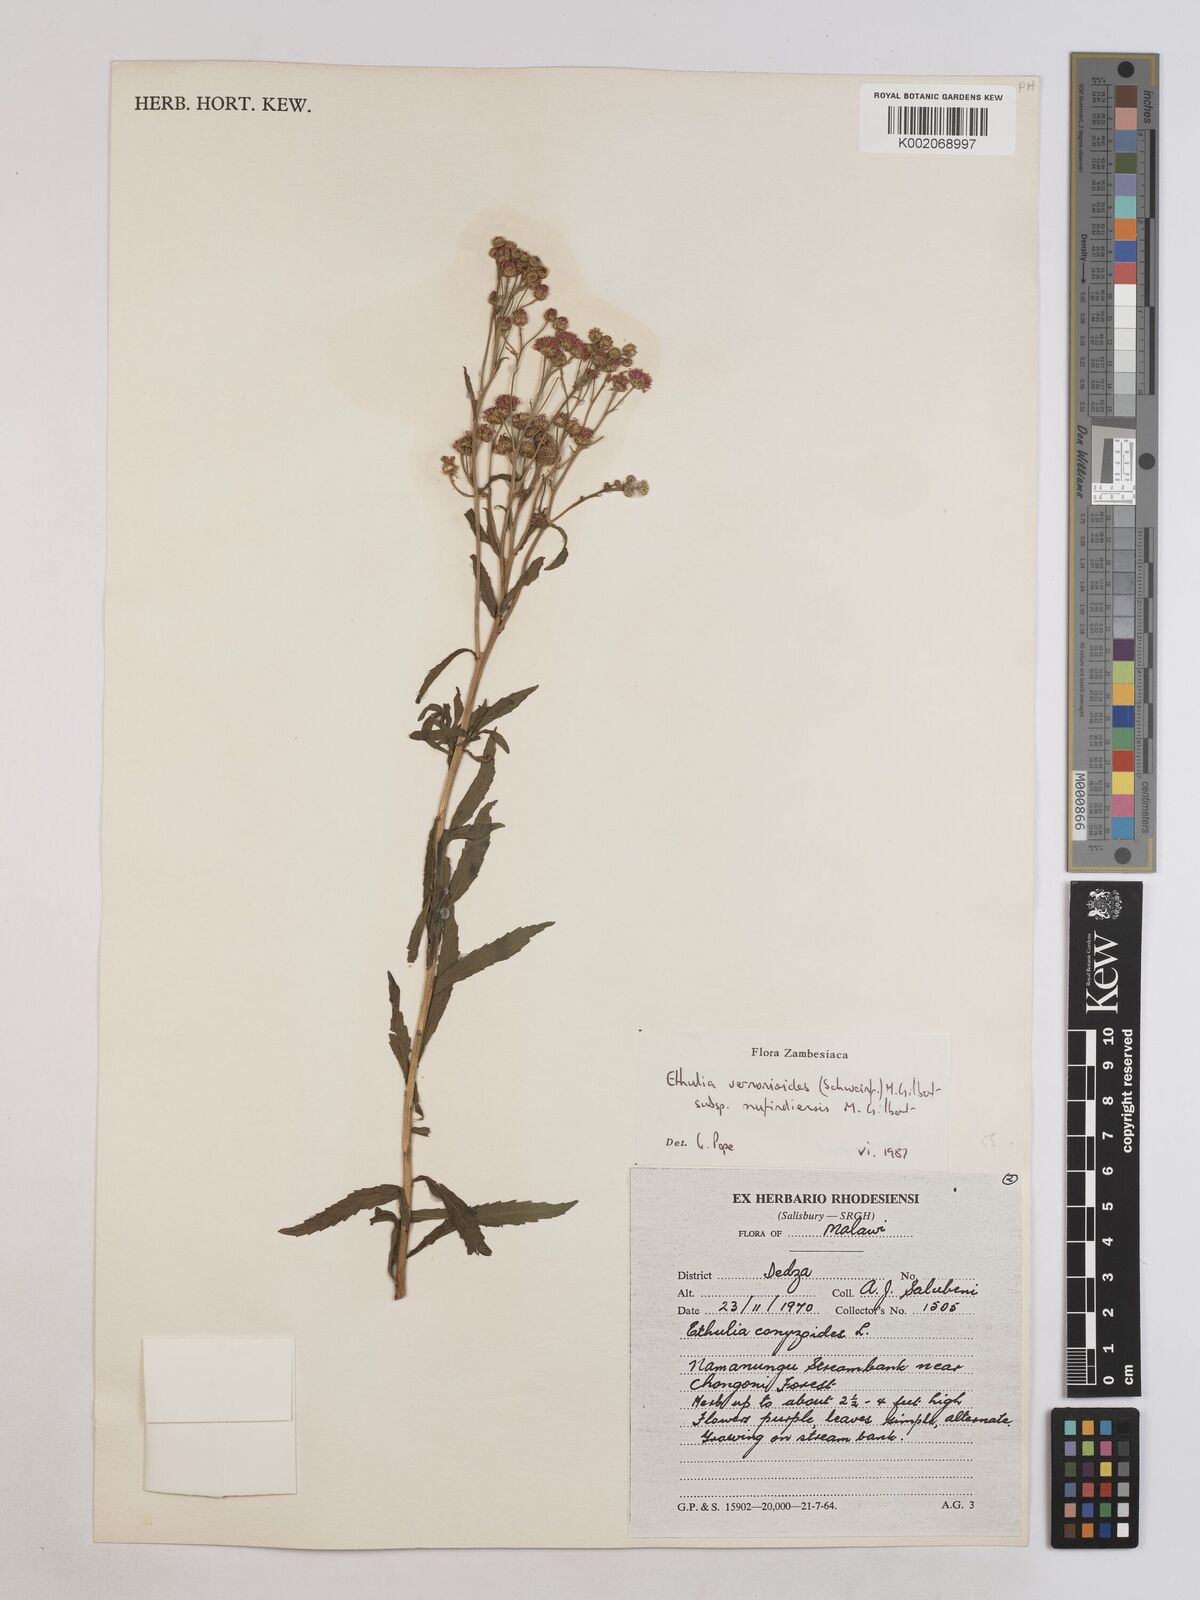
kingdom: Plantae
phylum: Tracheophyta
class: Magnoliopsida
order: Asterales
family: Asteraceae
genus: Ethulia
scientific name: Ethulia vernonioides
